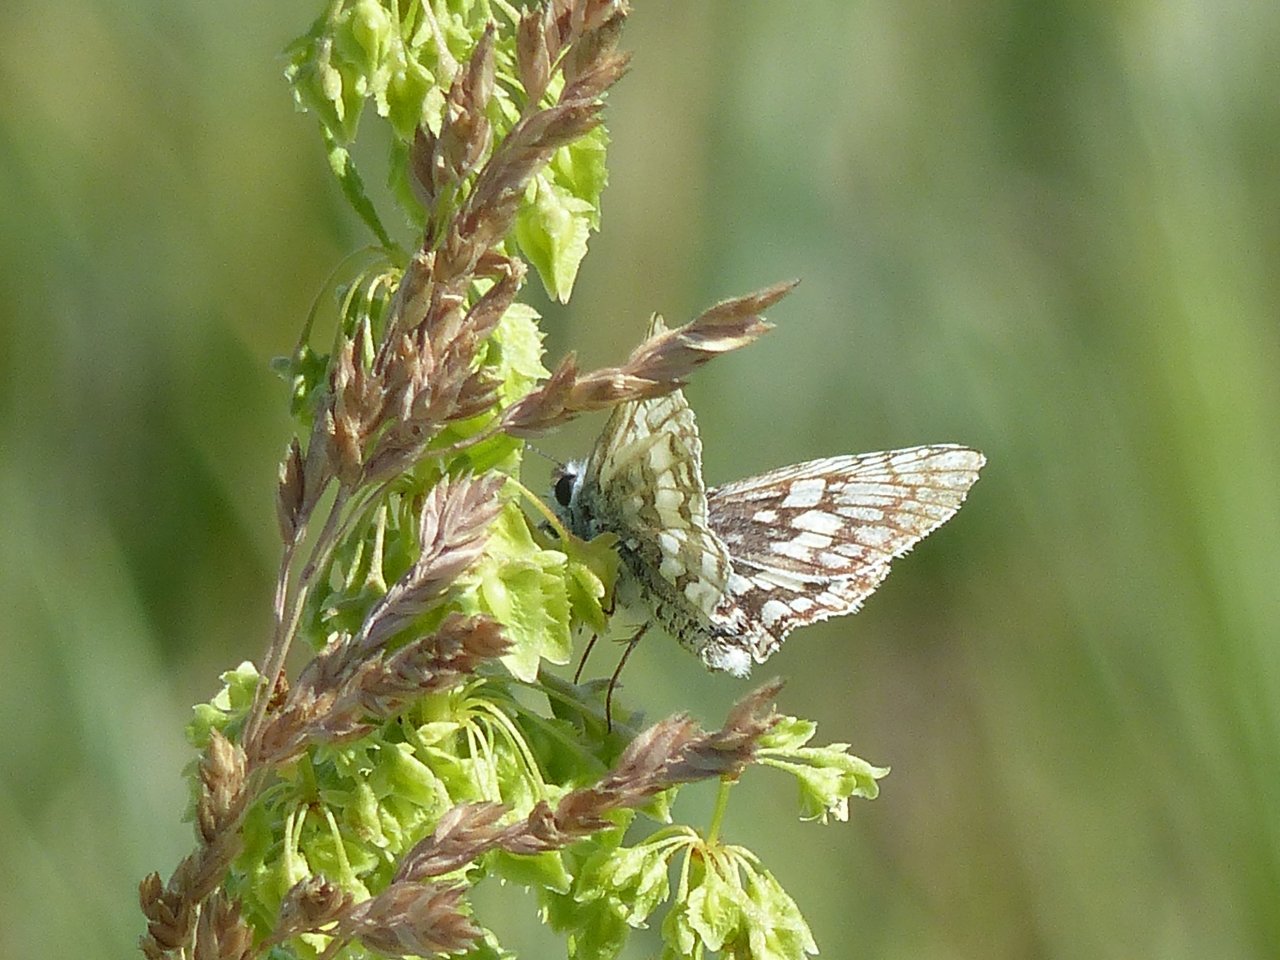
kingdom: Animalia
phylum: Arthropoda
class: Insecta
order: Lepidoptera
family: Hesperiidae
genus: Pyrgus
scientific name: Pyrgus communis
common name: Common Checkered-Skipper
